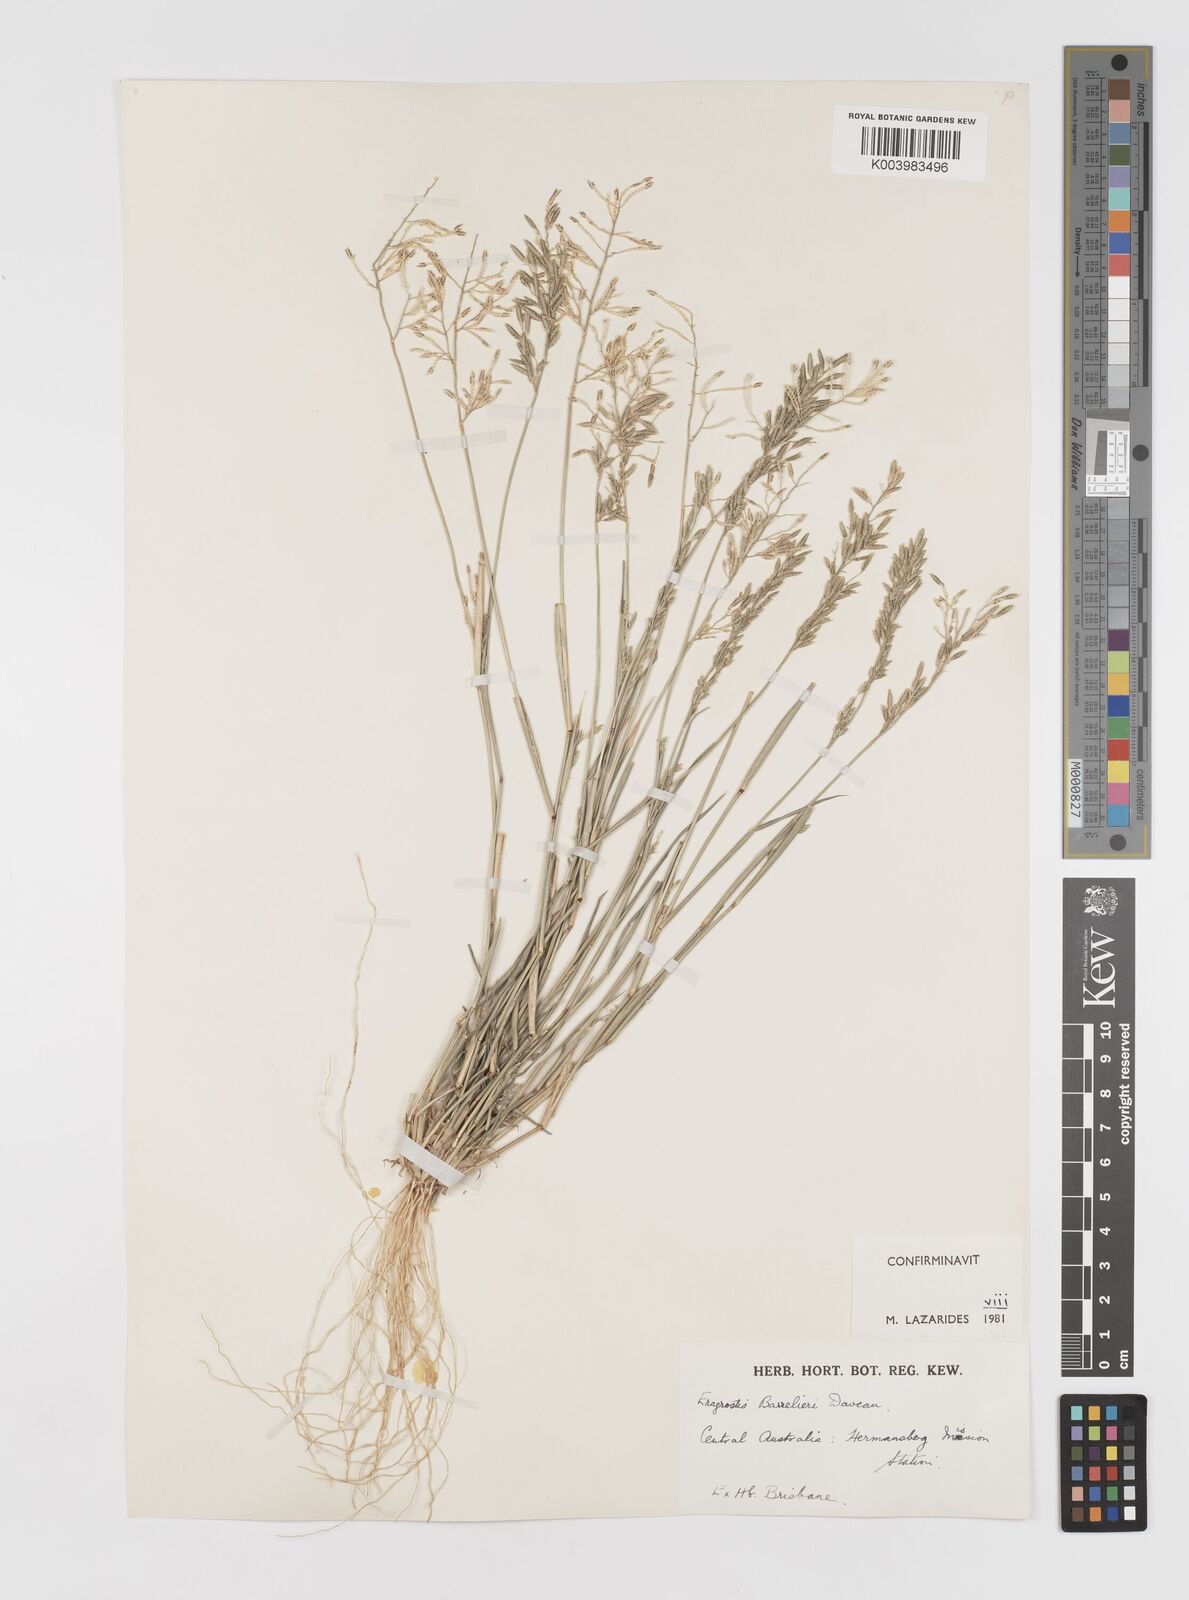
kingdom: Plantae
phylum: Tracheophyta
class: Liliopsida
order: Poales
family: Poaceae
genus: Eragrostis
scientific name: Eragrostis barrelieri
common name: Mediterranean lovegrass
